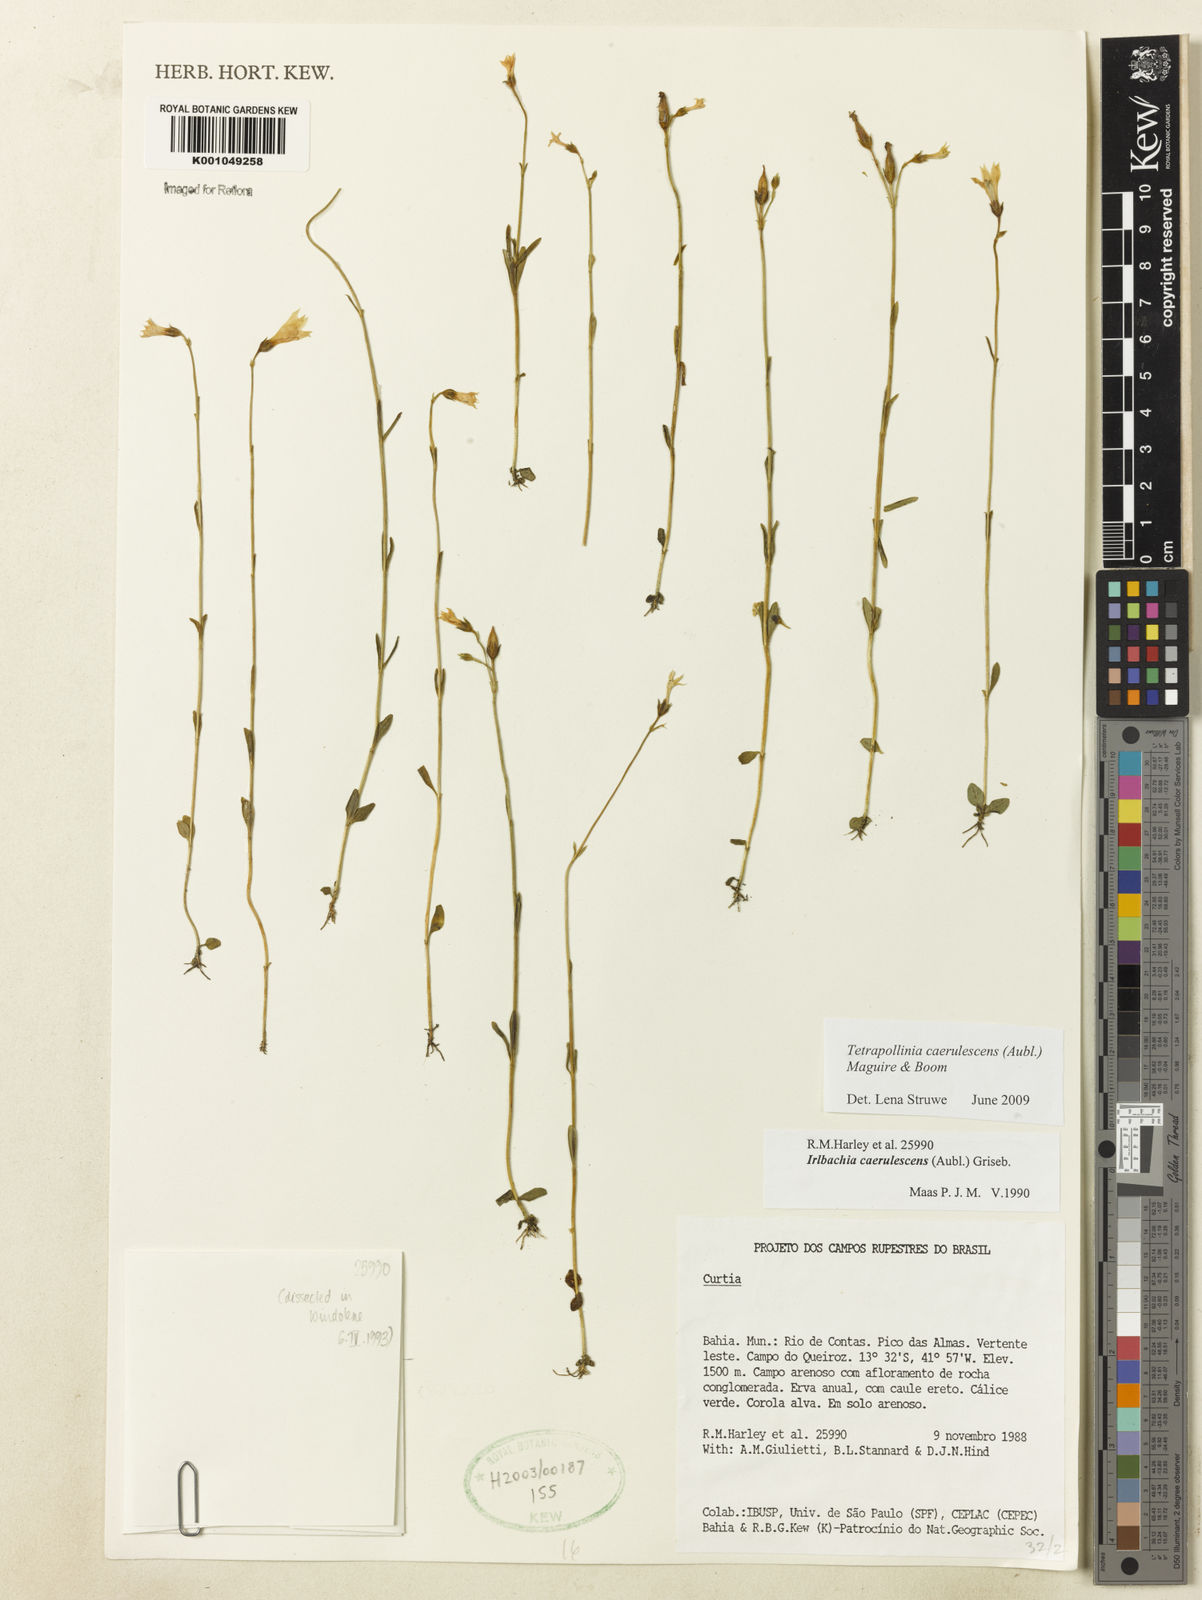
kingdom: Plantae
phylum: Tracheophyta
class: Magnoliopsida
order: Gentianales
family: Gentianaceae
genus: Tetrapollinia
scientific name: Tetrapollinia caerulescens
